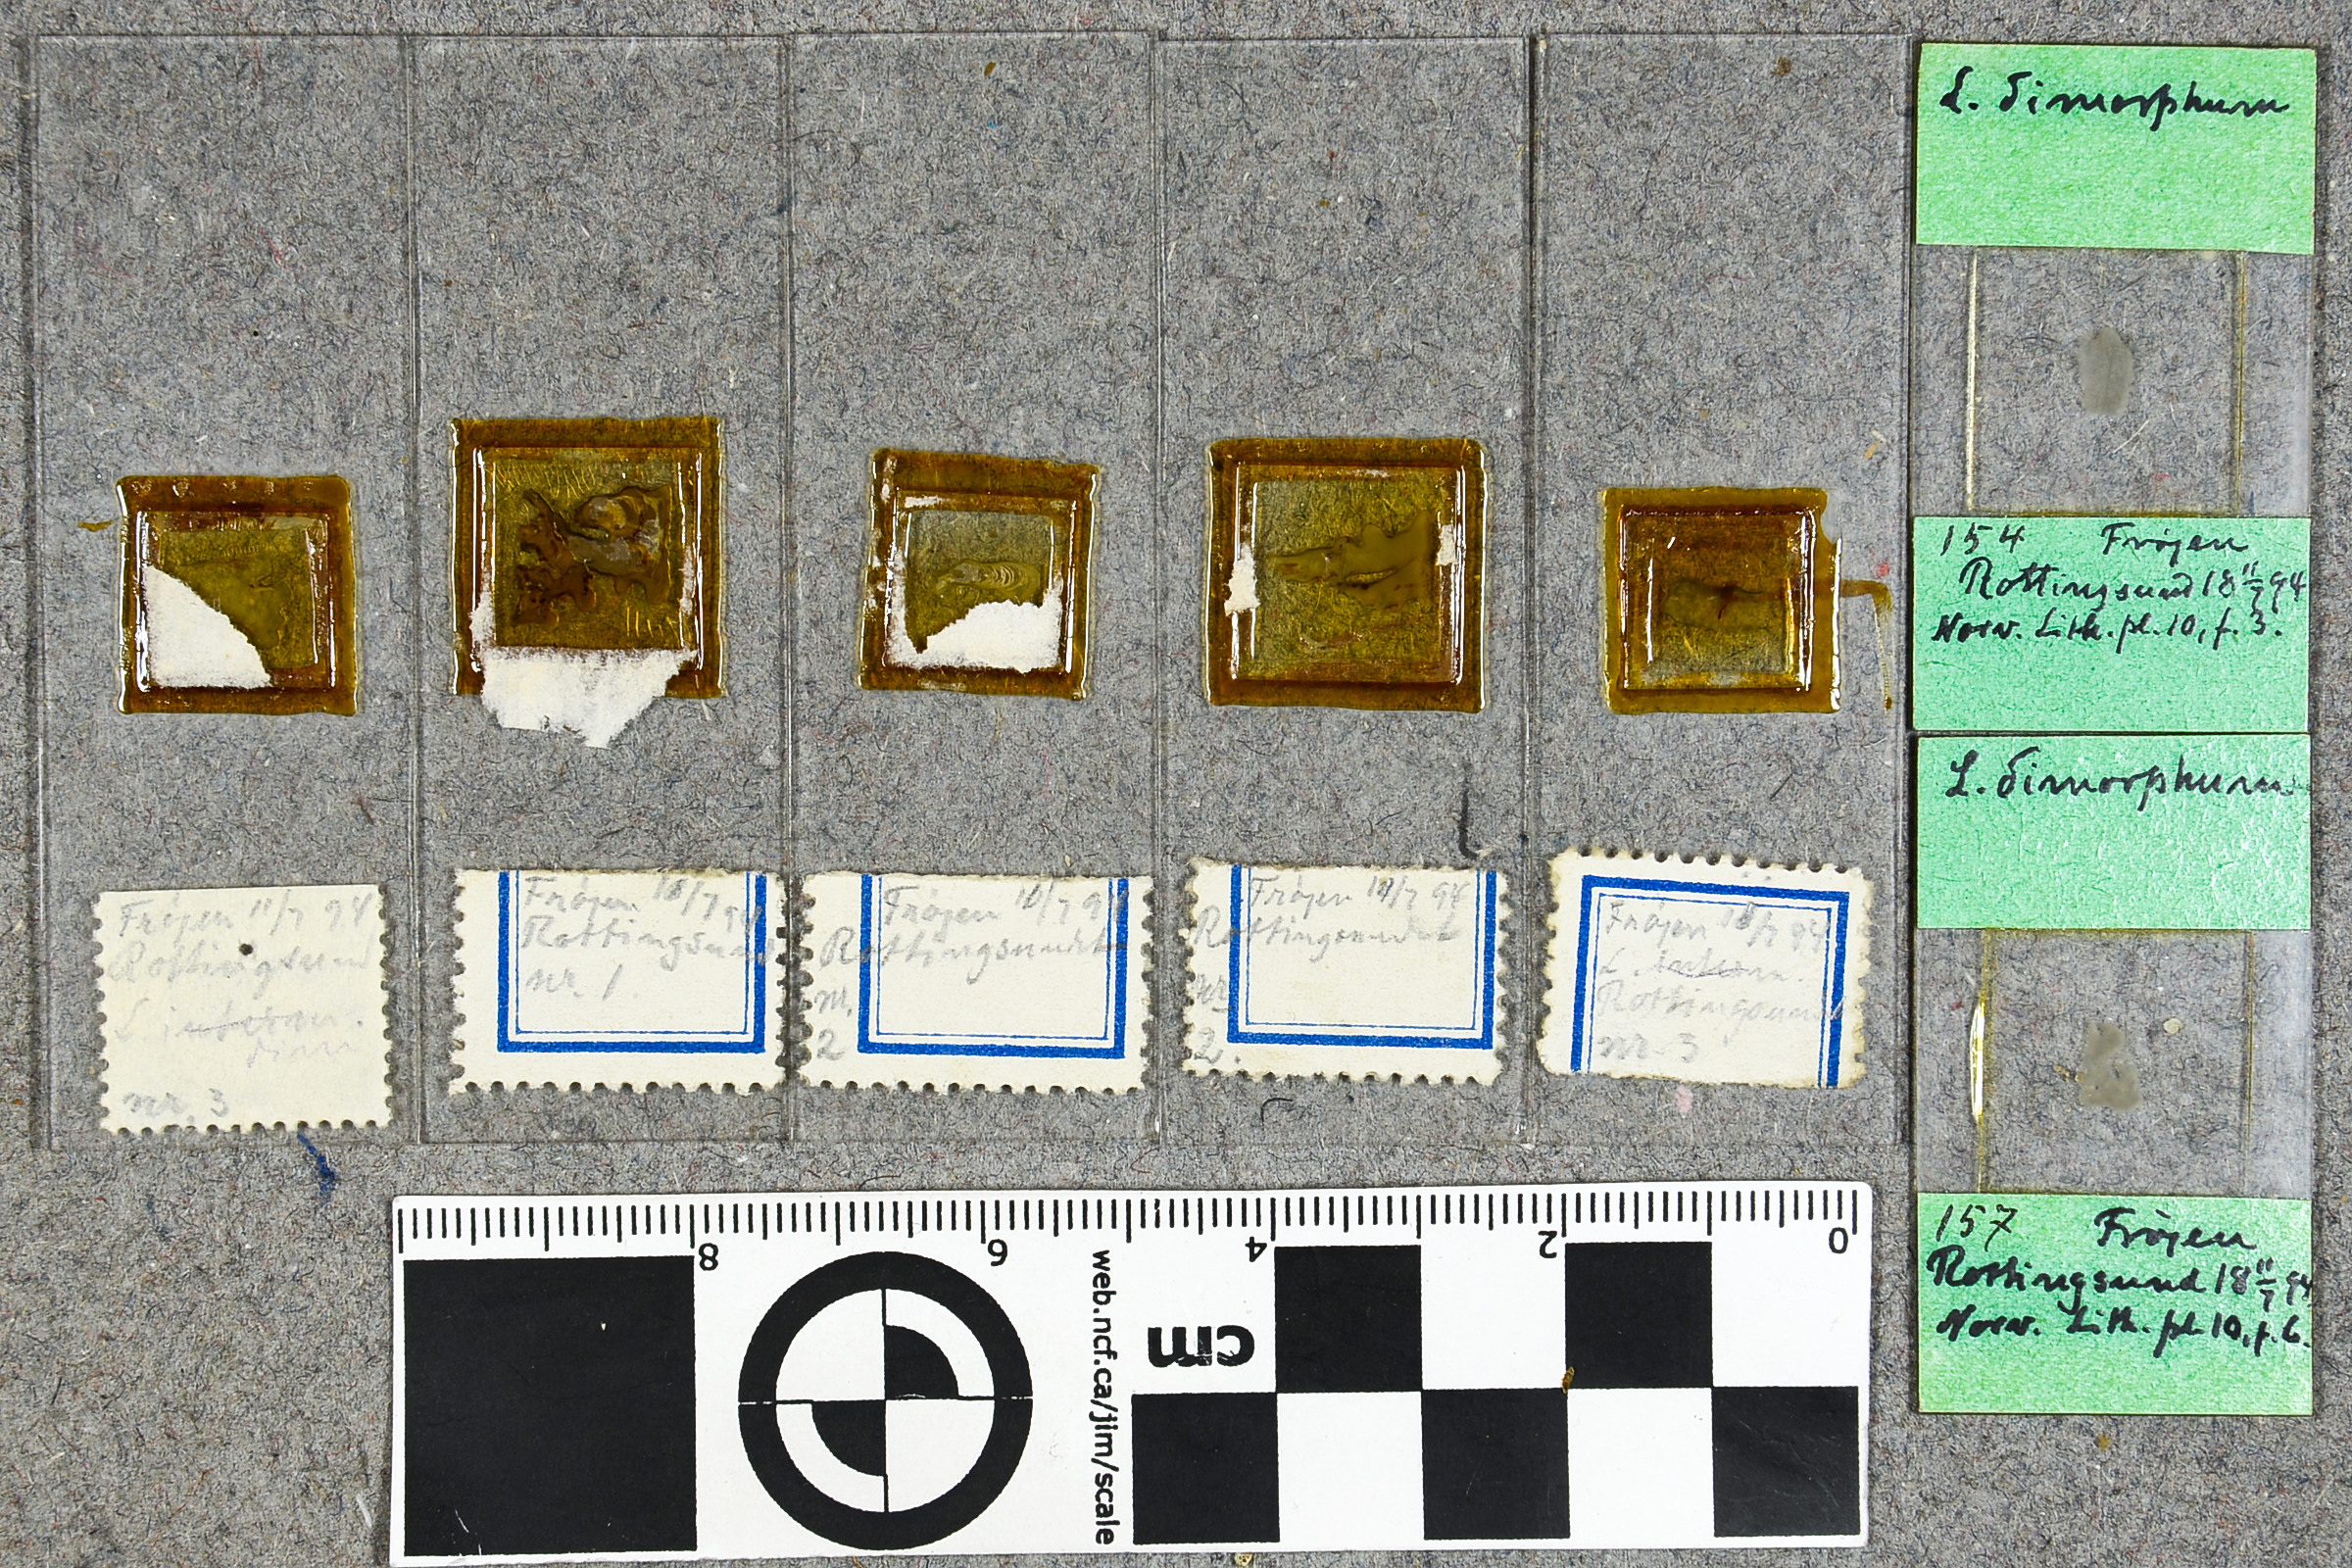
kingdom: Plantae
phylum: Rhodophyta
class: Florideophyceae
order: Corallinales
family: Hapalidiaceae
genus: Lithothamnion
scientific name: Lithothamnion soriferum
